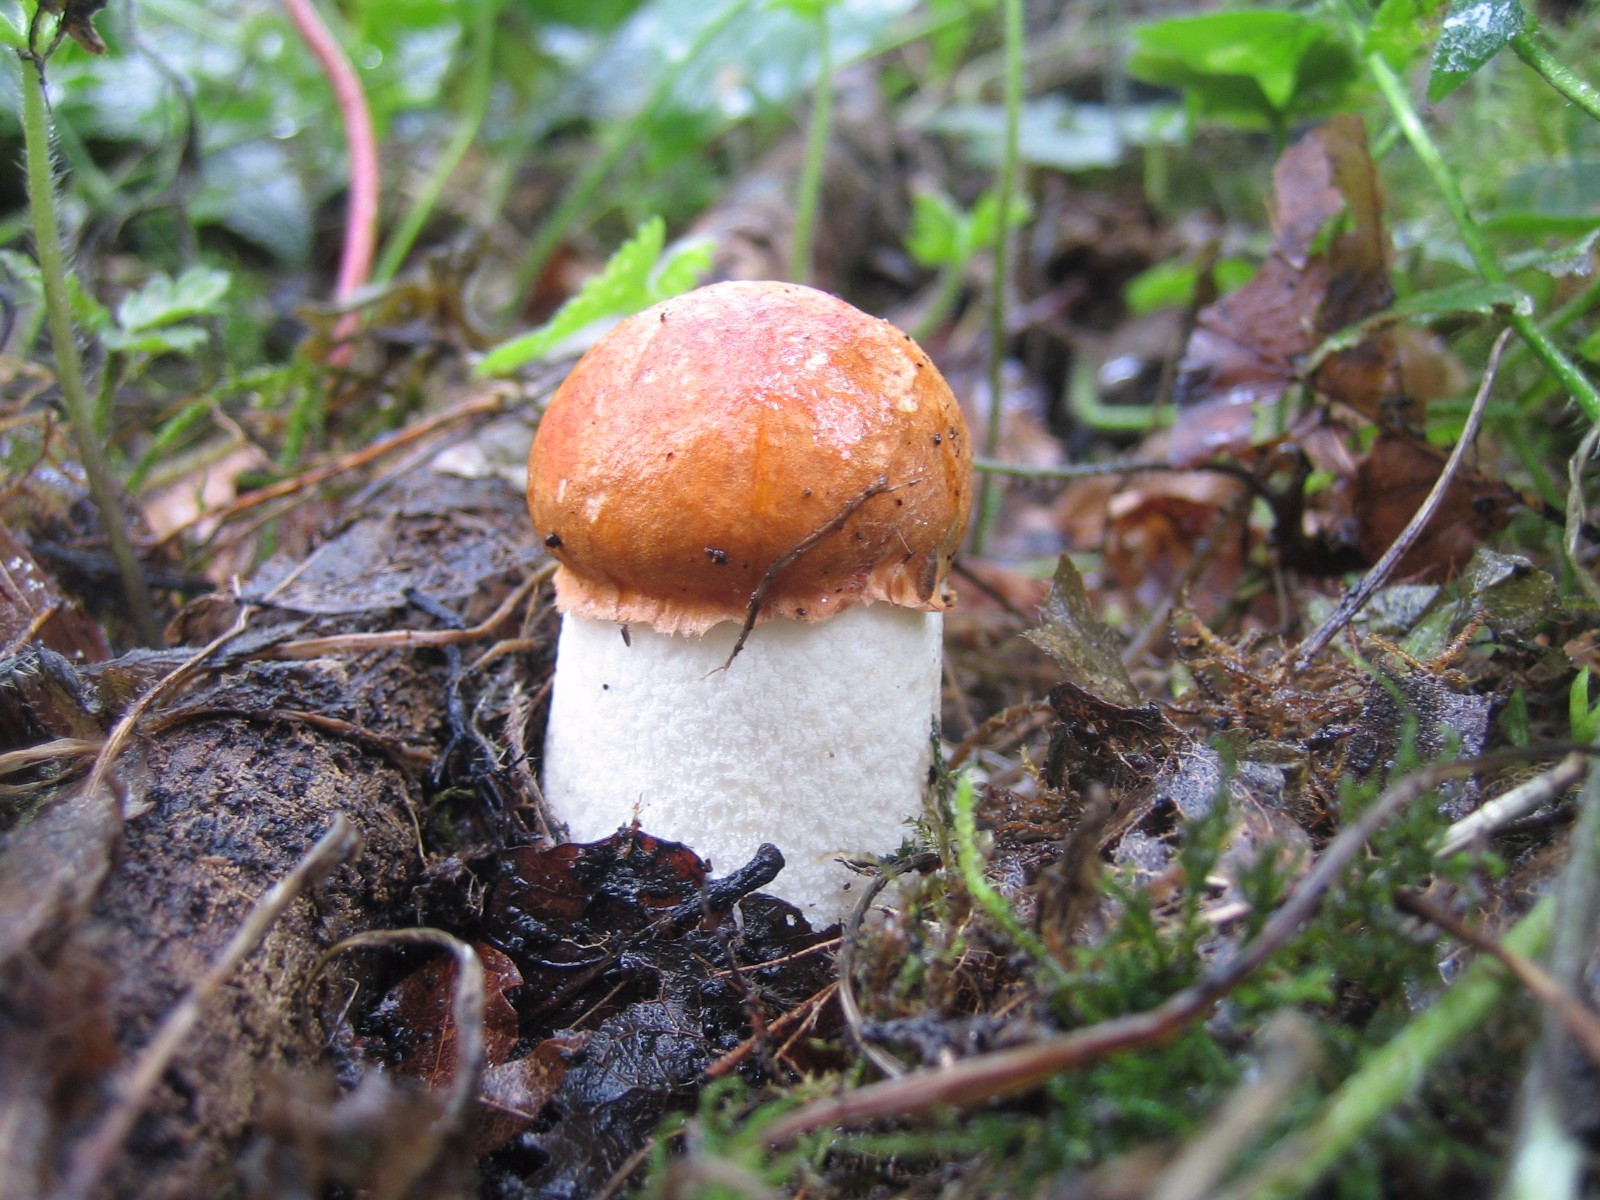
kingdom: Fungi
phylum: Basidiomycota
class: Agaricomycetes
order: Boletales
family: Boletaceae
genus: Leccinum
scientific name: Leccinum aurantiacum
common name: rustrød skælrørhat
